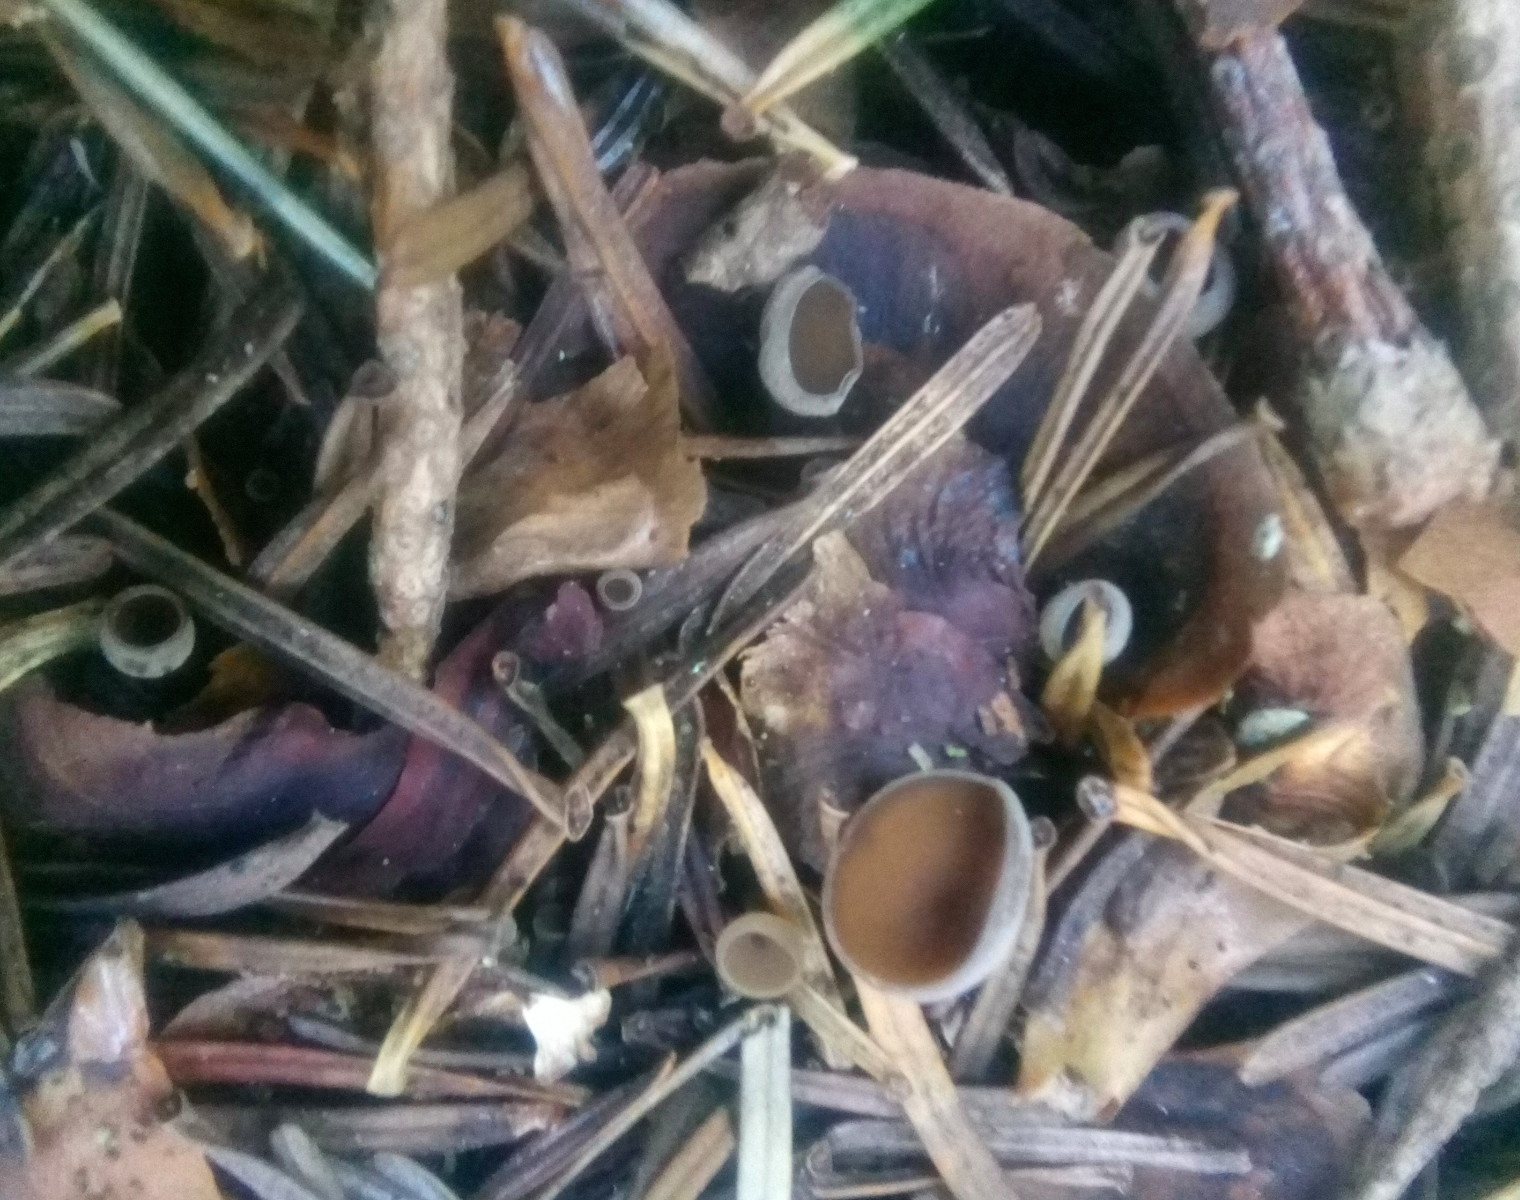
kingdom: Fungi
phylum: Ascomycota
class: Leotiomycetes
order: Helotiales
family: Sclerotiniaceae
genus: Ciboria
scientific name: Ciboria rufofusca
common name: kogleskæl-knoldskive
